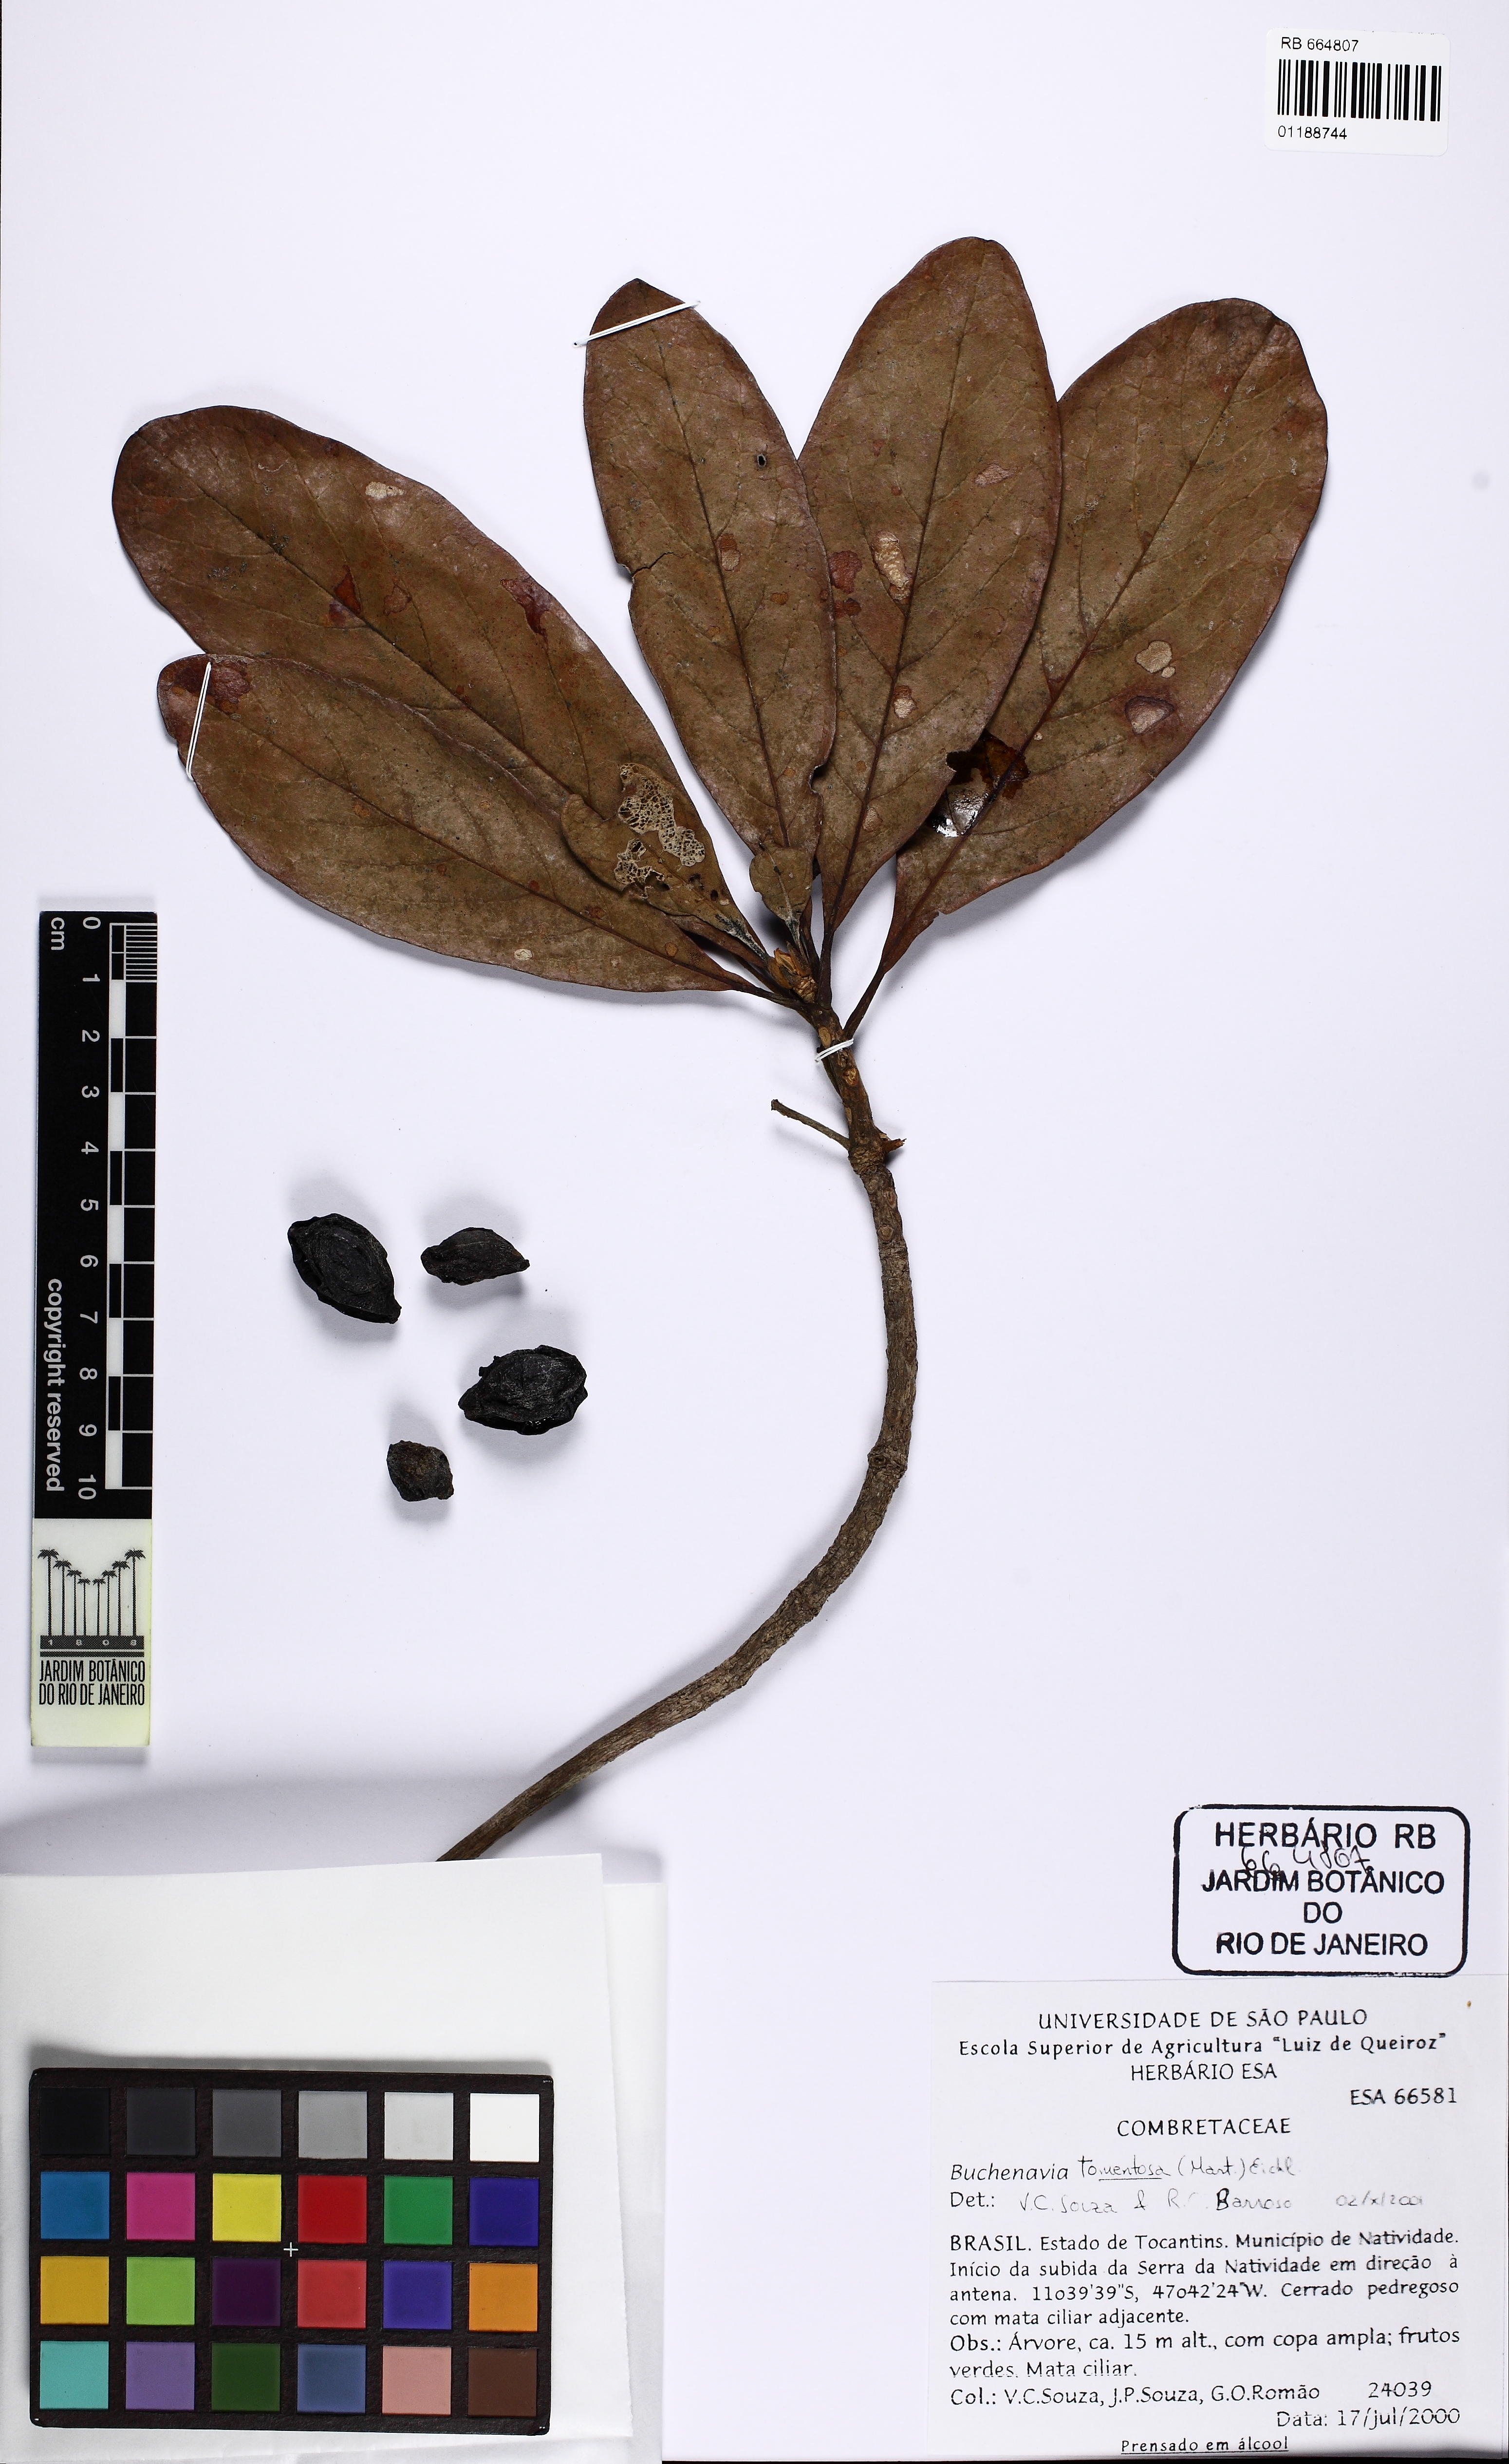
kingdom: Plantae
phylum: Tracheophyta
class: Magnoliopsida
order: Myrtales
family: Combretaceae
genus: Terminalia
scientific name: Terminalia corrugata
